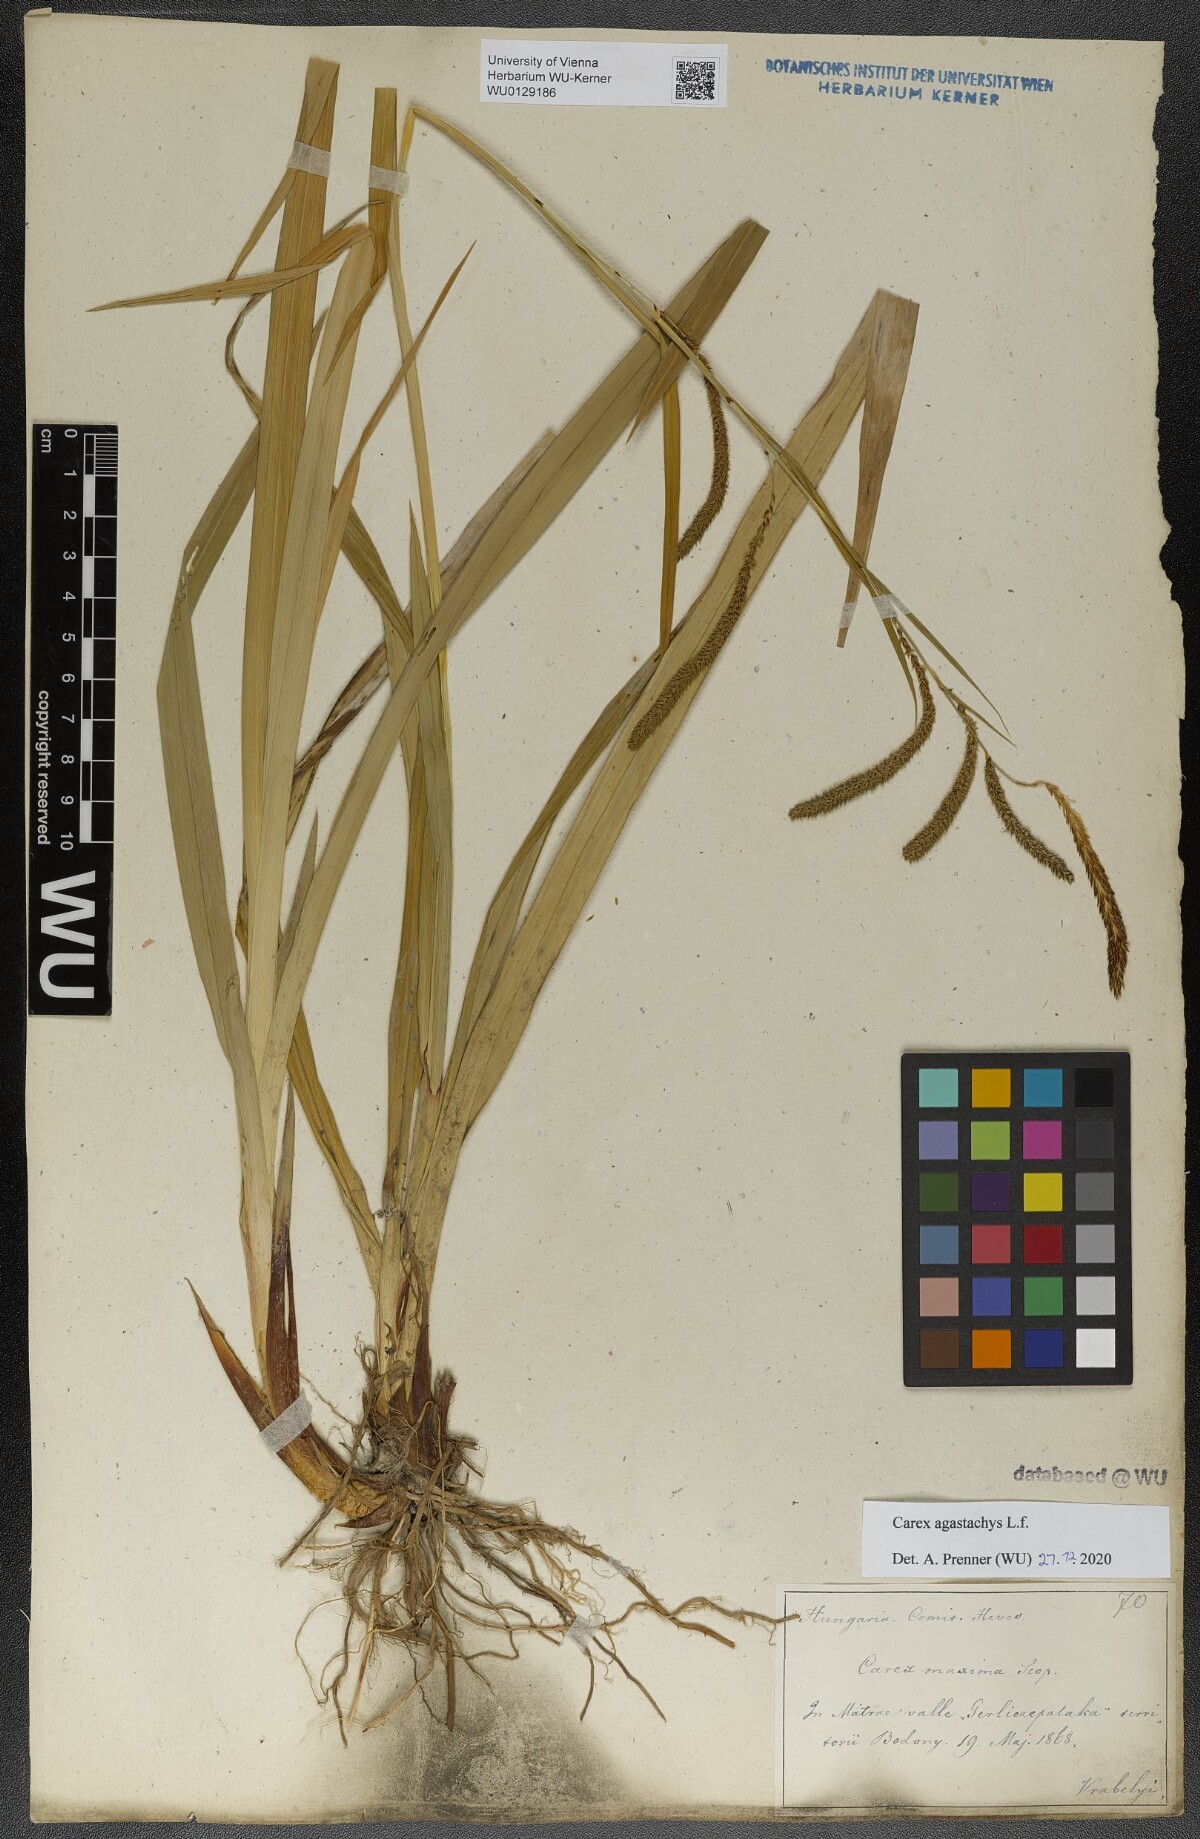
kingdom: Plantae
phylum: Tracheophyta
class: Liliopsida
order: Poales
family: Cyperaceae
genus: Carex
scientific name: Carex agastachys
